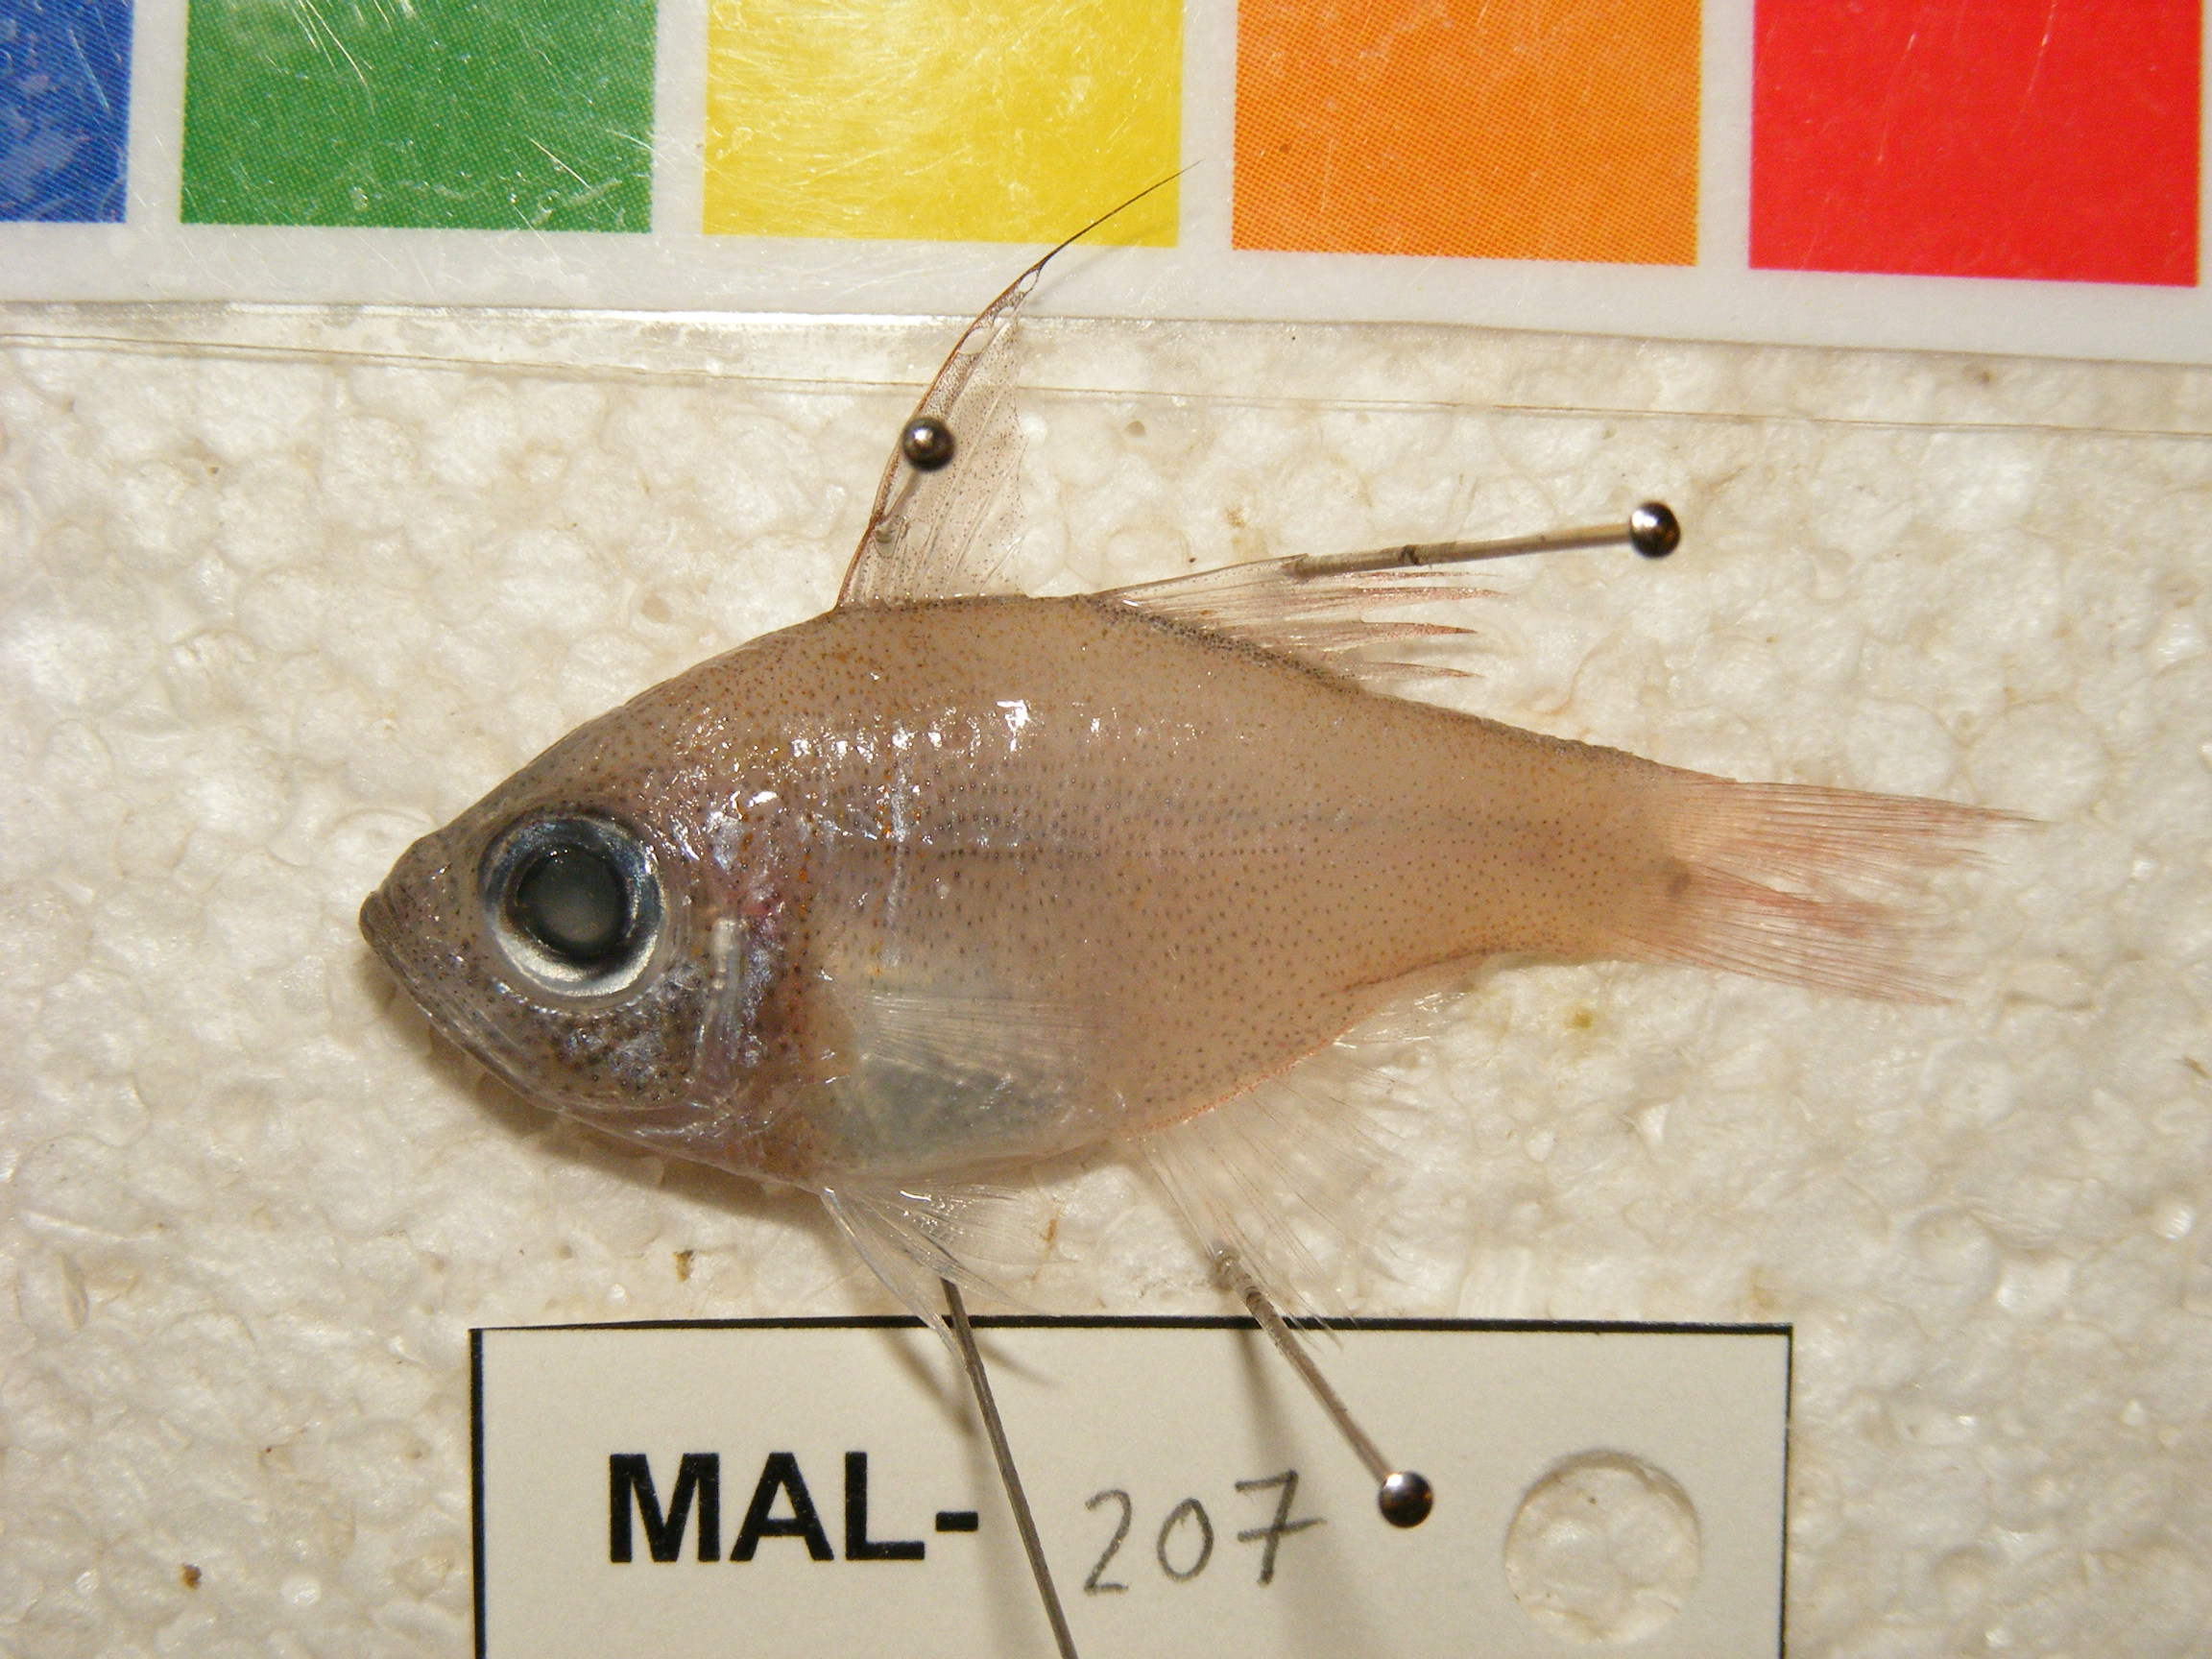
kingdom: Animalia
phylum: Chordata
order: Perciformes
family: Apogonidae
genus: Zoramia
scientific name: Zoramia leptacantha
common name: Threadfin cardinalfish
